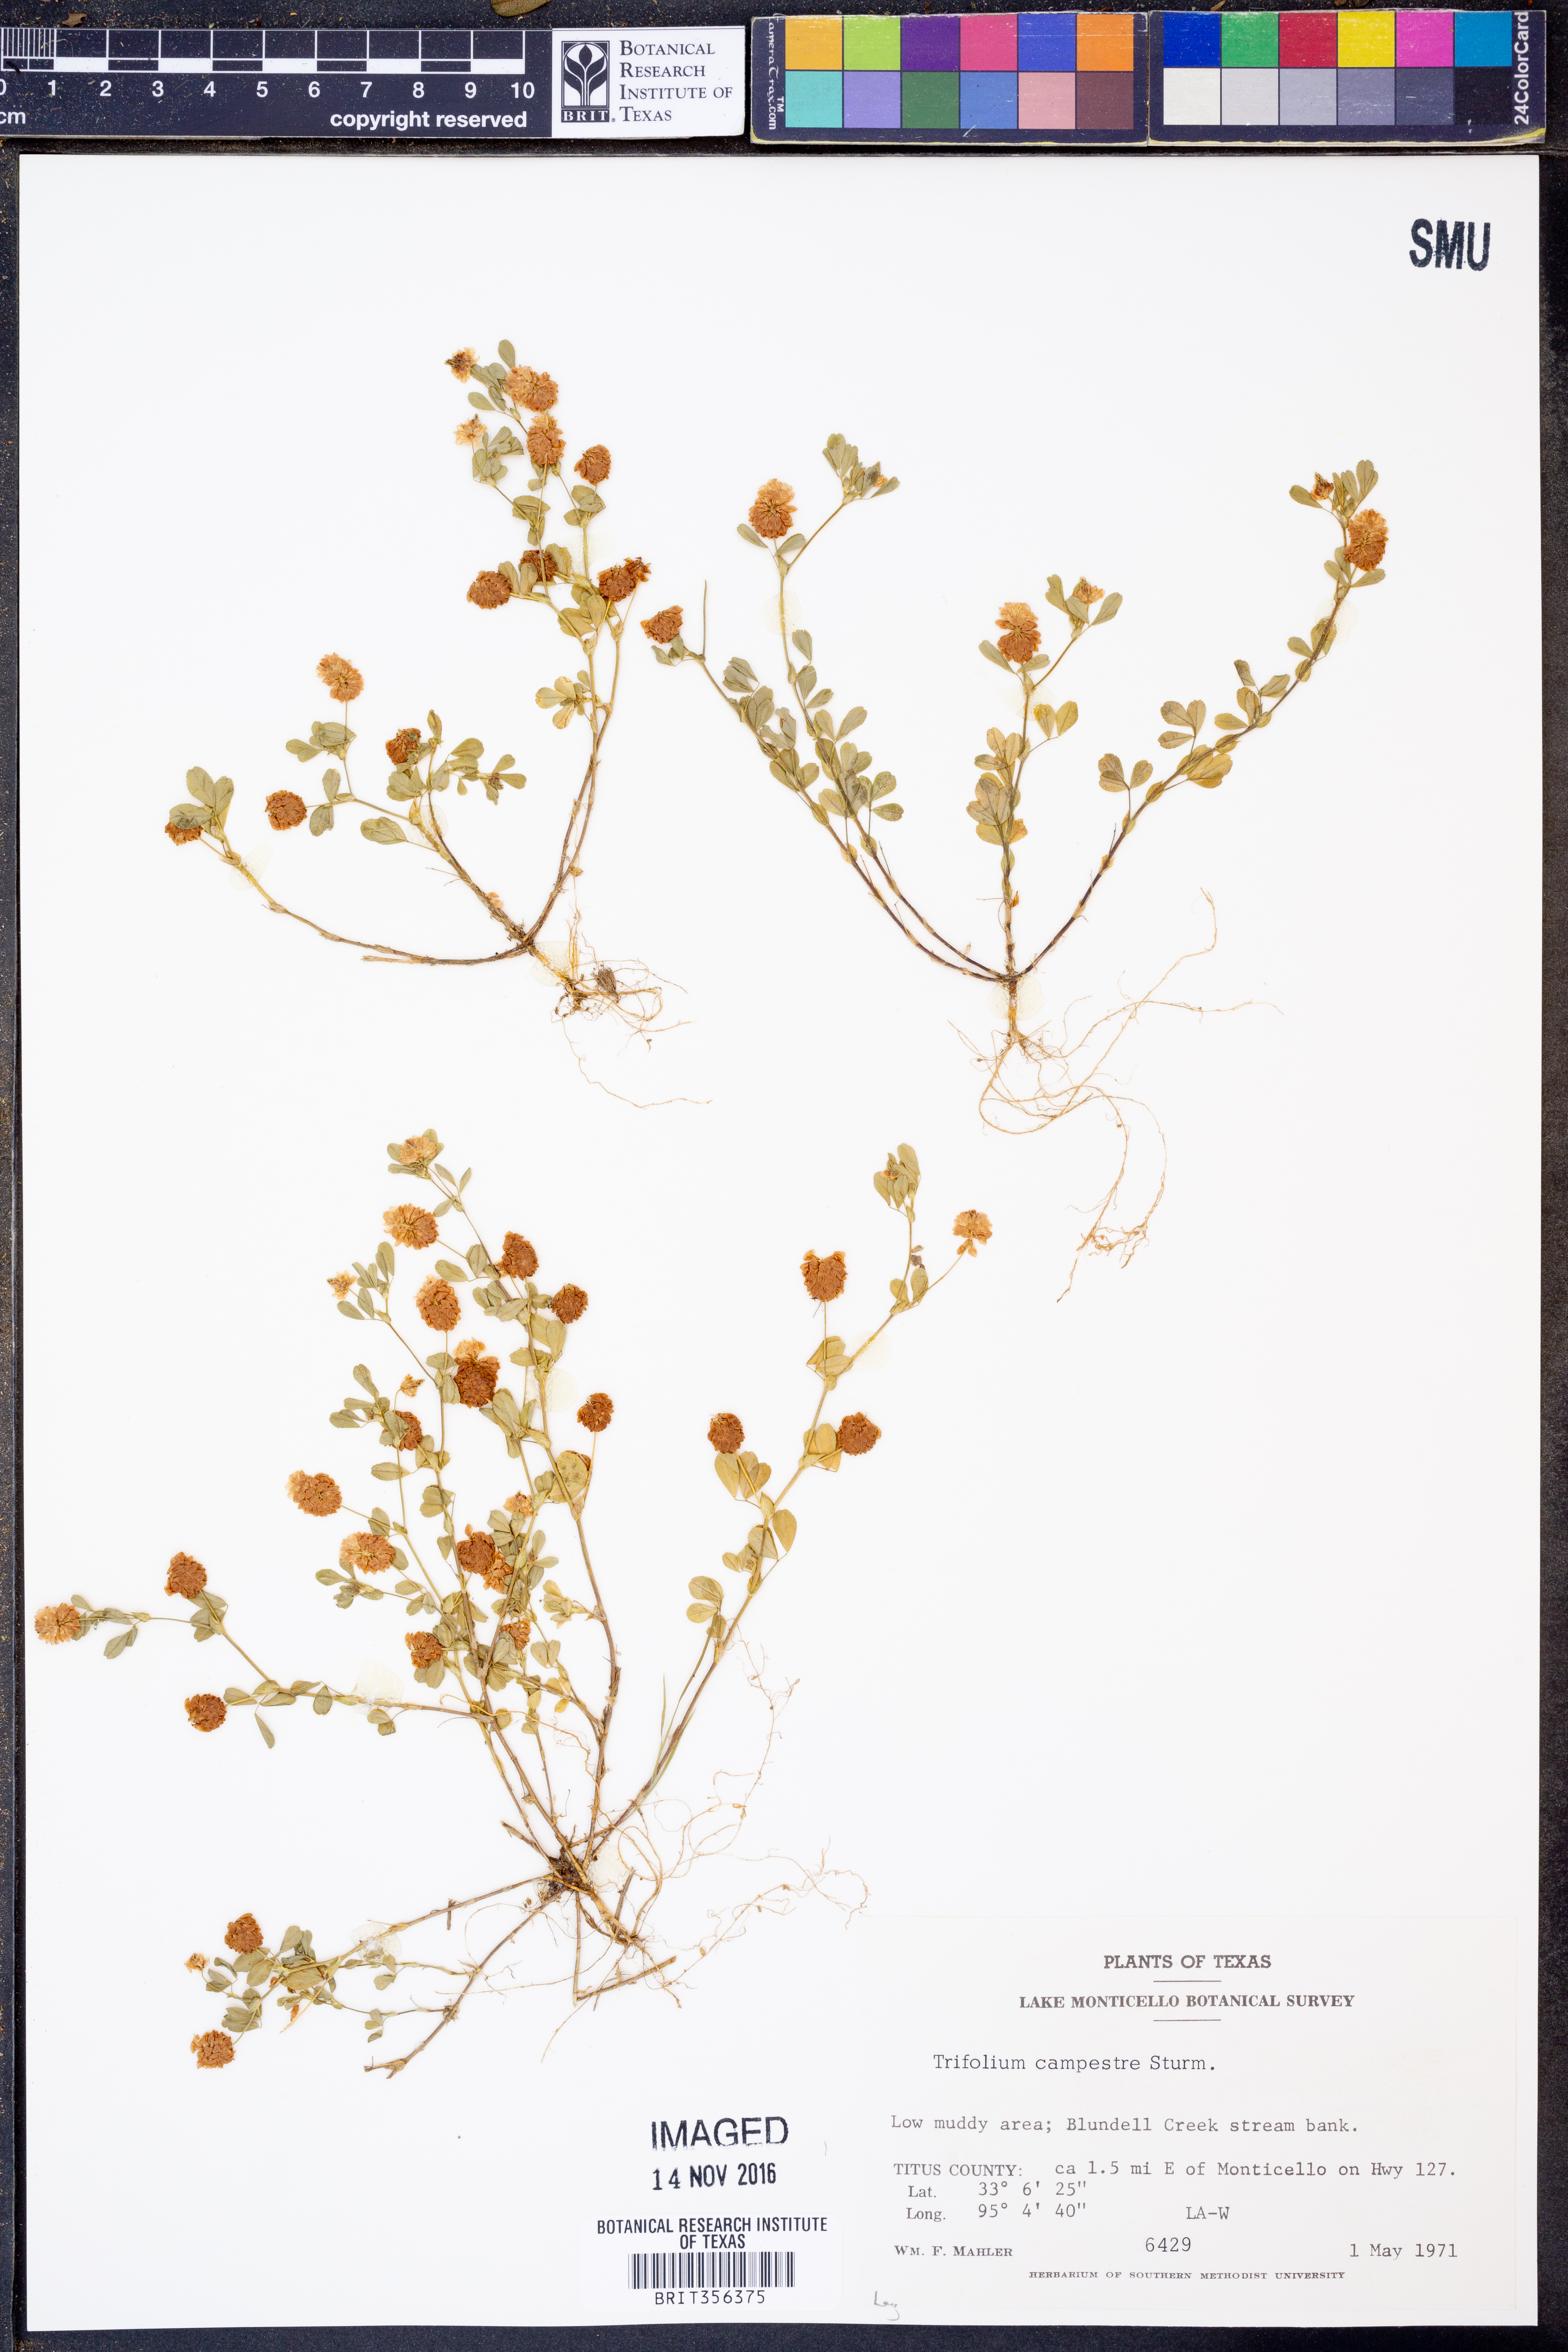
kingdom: Plantae
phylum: Tracheophyta
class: Magnoliopsida
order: Fabales
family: Fabaceae
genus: Trifolium
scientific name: Trifolium campestre
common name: Field clover
